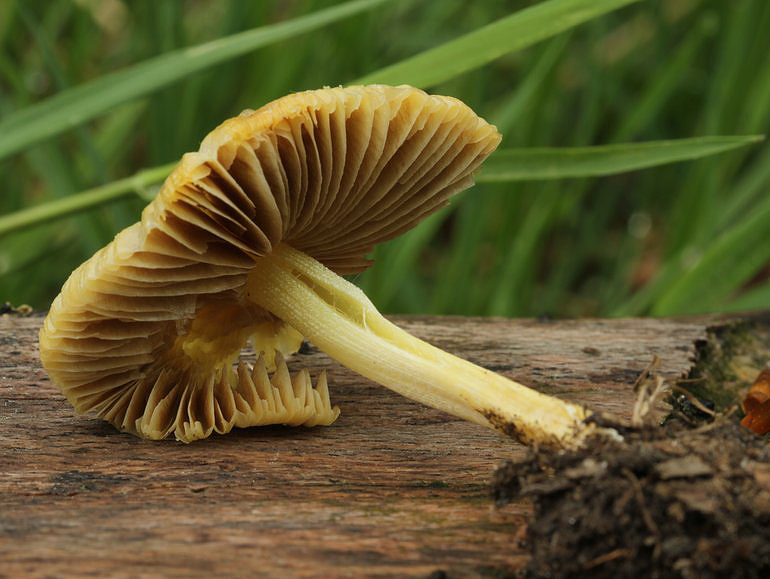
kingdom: Fungi
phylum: Basidiomycota
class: Agaricomycetes
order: Agaricales
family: Pluteaceae
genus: Pluteus
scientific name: Pluteus romellii
